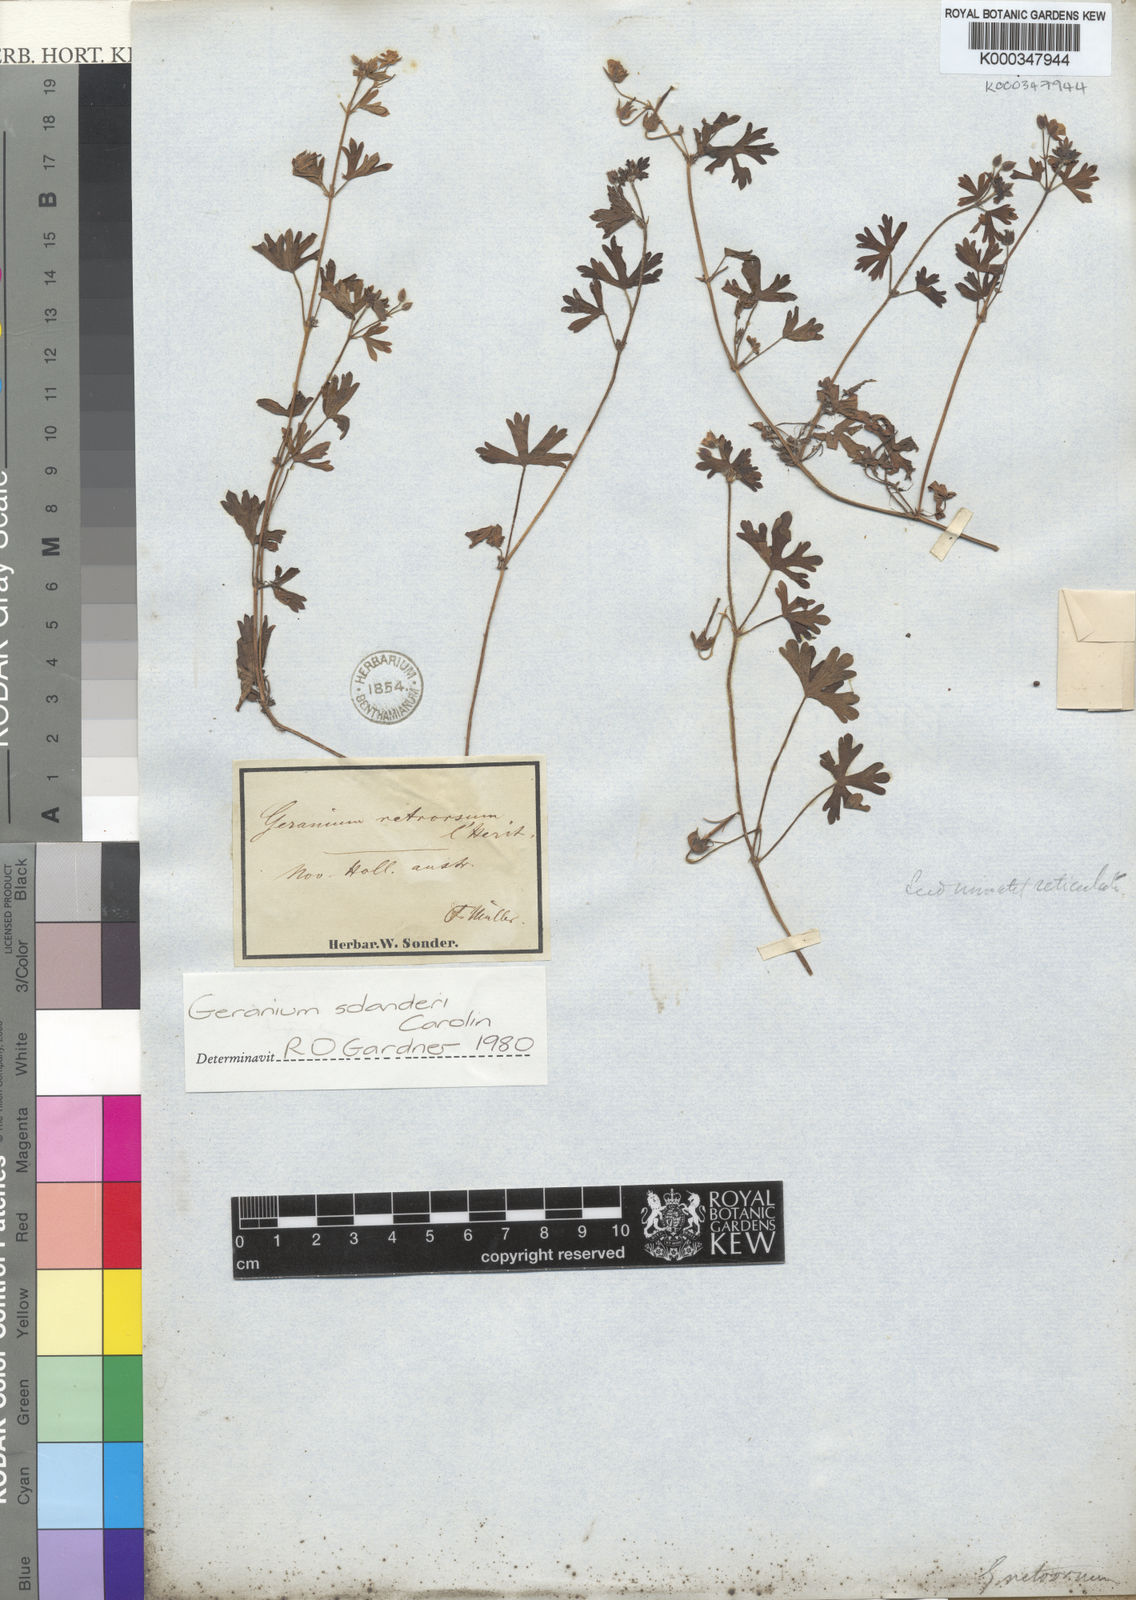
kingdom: Plantae
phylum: Tracheophyta
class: Magnoliopsida
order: Geraniales
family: Geraniaceae
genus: Geranium
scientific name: Geranium solanderi
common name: Solander's geranium
